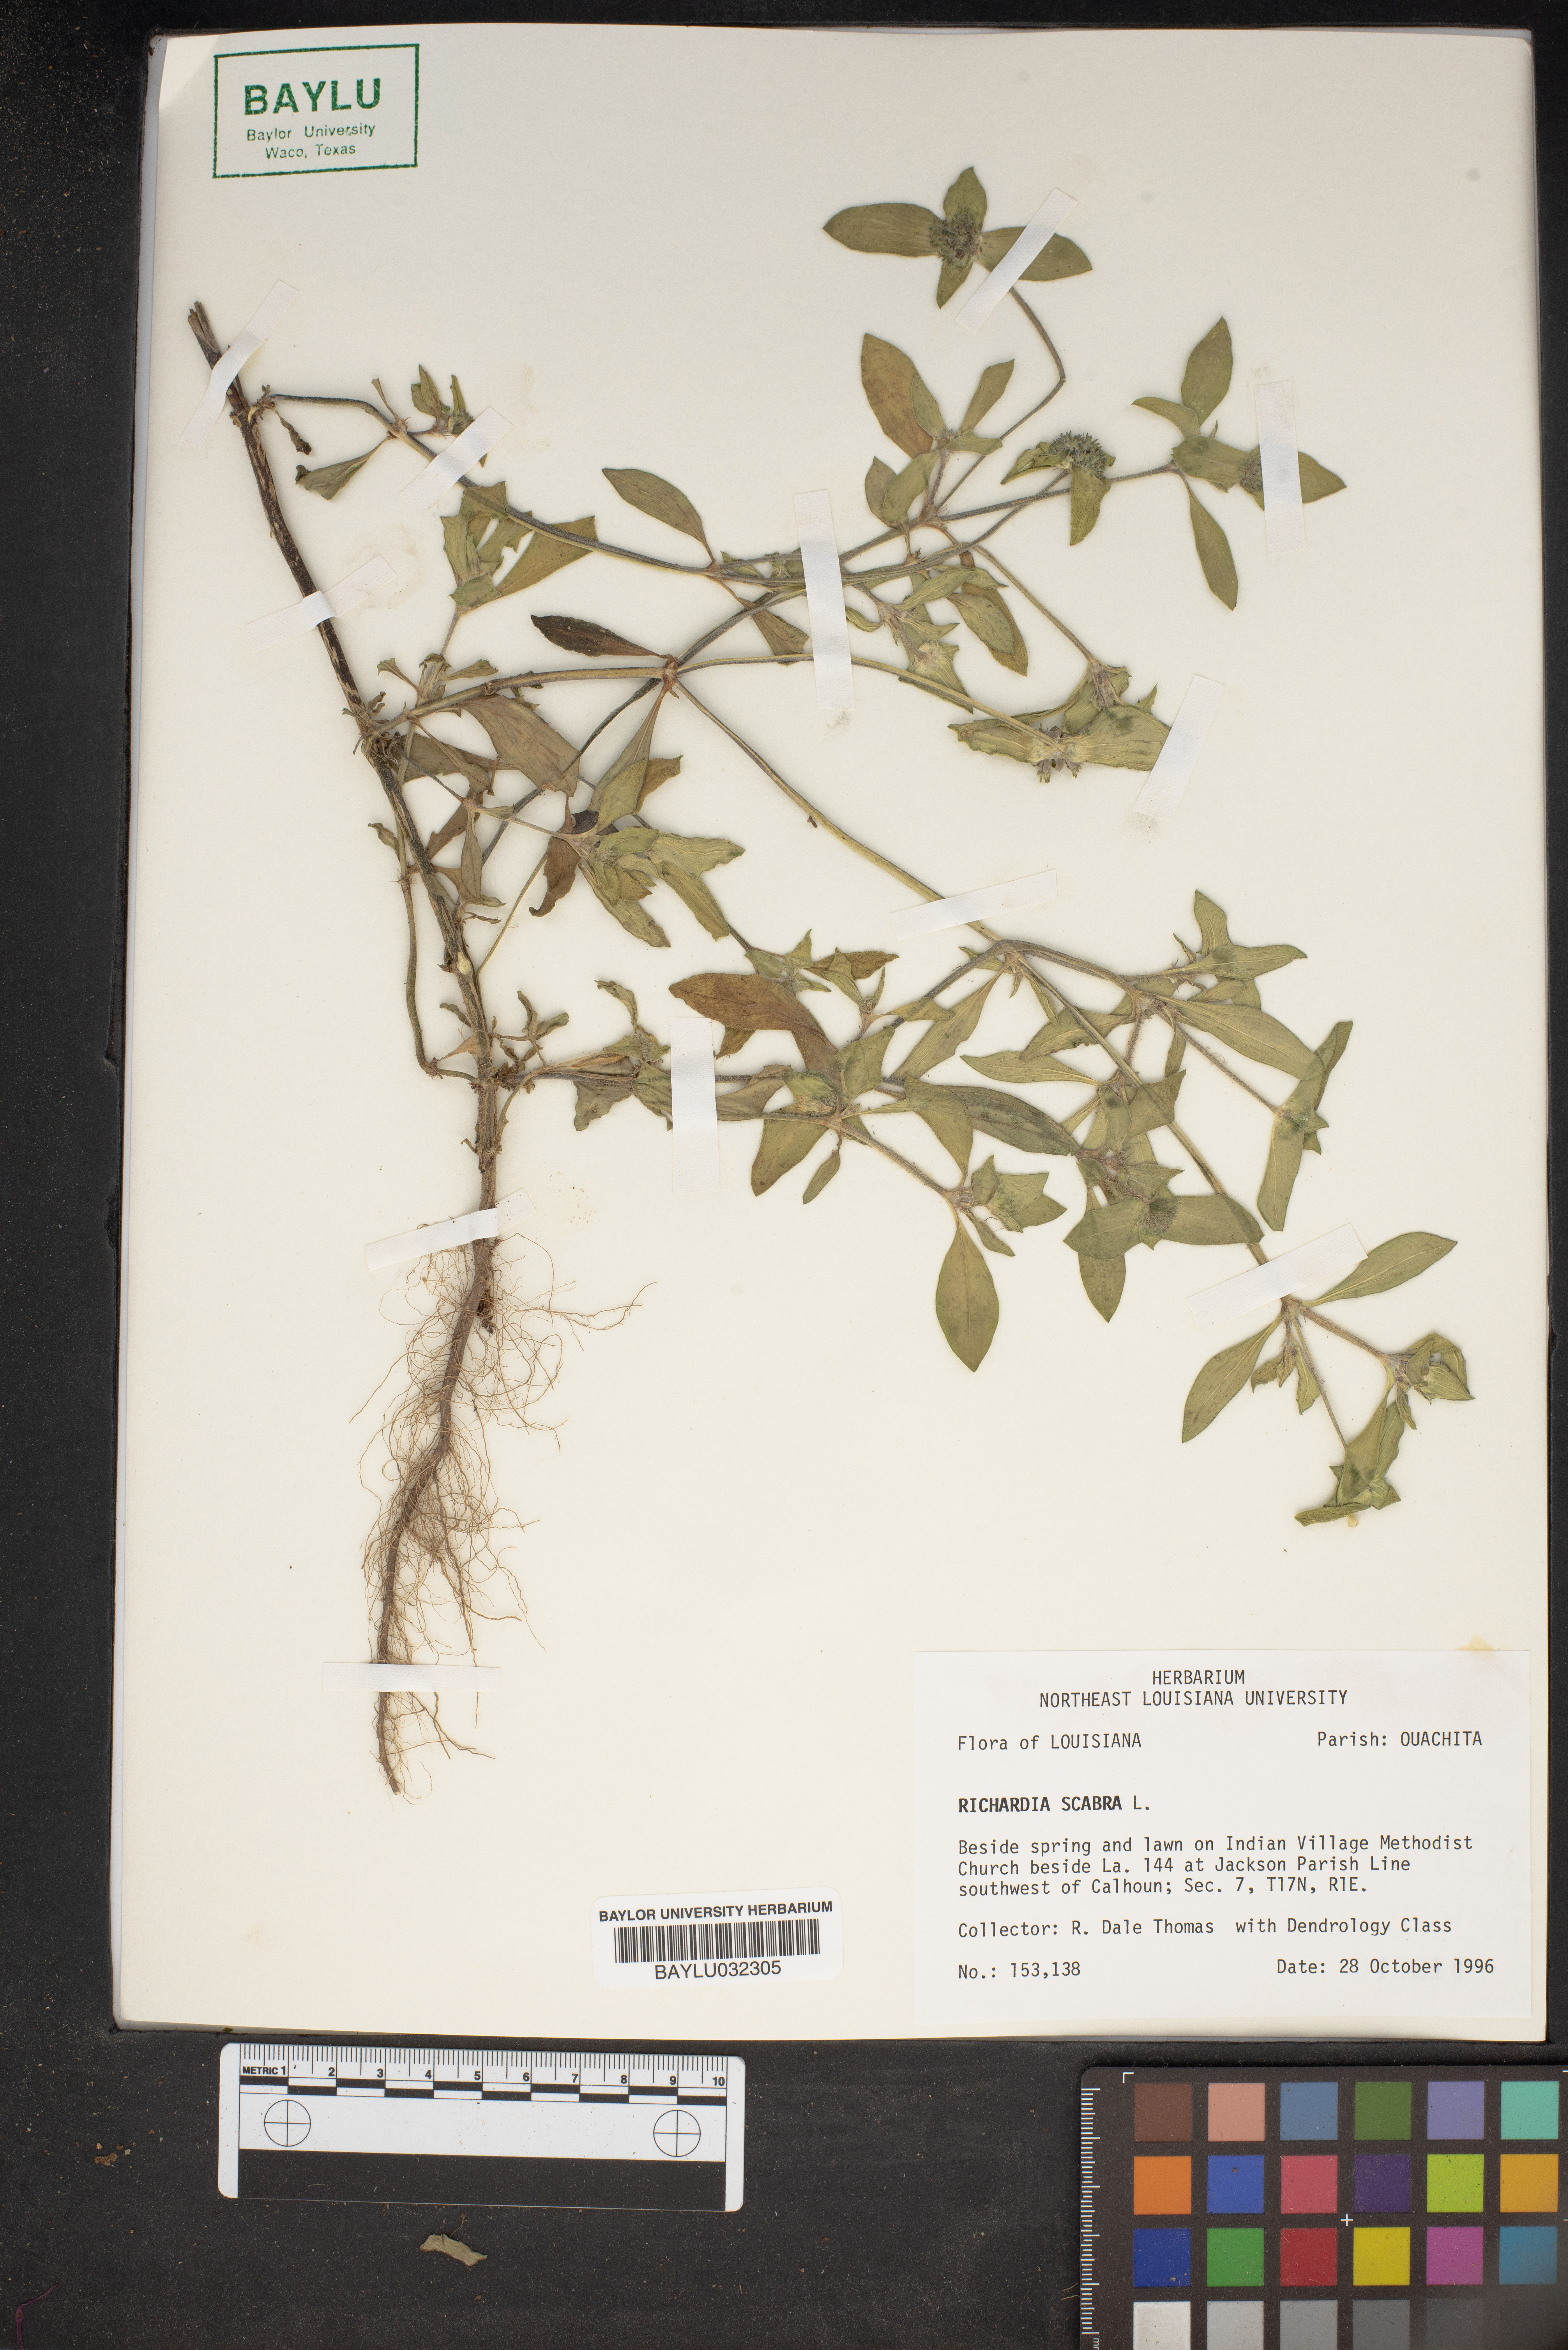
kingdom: Plantae
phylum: Tracheophyta
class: Magnoliopsida
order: Gentianales
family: Rubiaceae
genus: Richardia
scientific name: Richardia scabra
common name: Rough mexican clover
